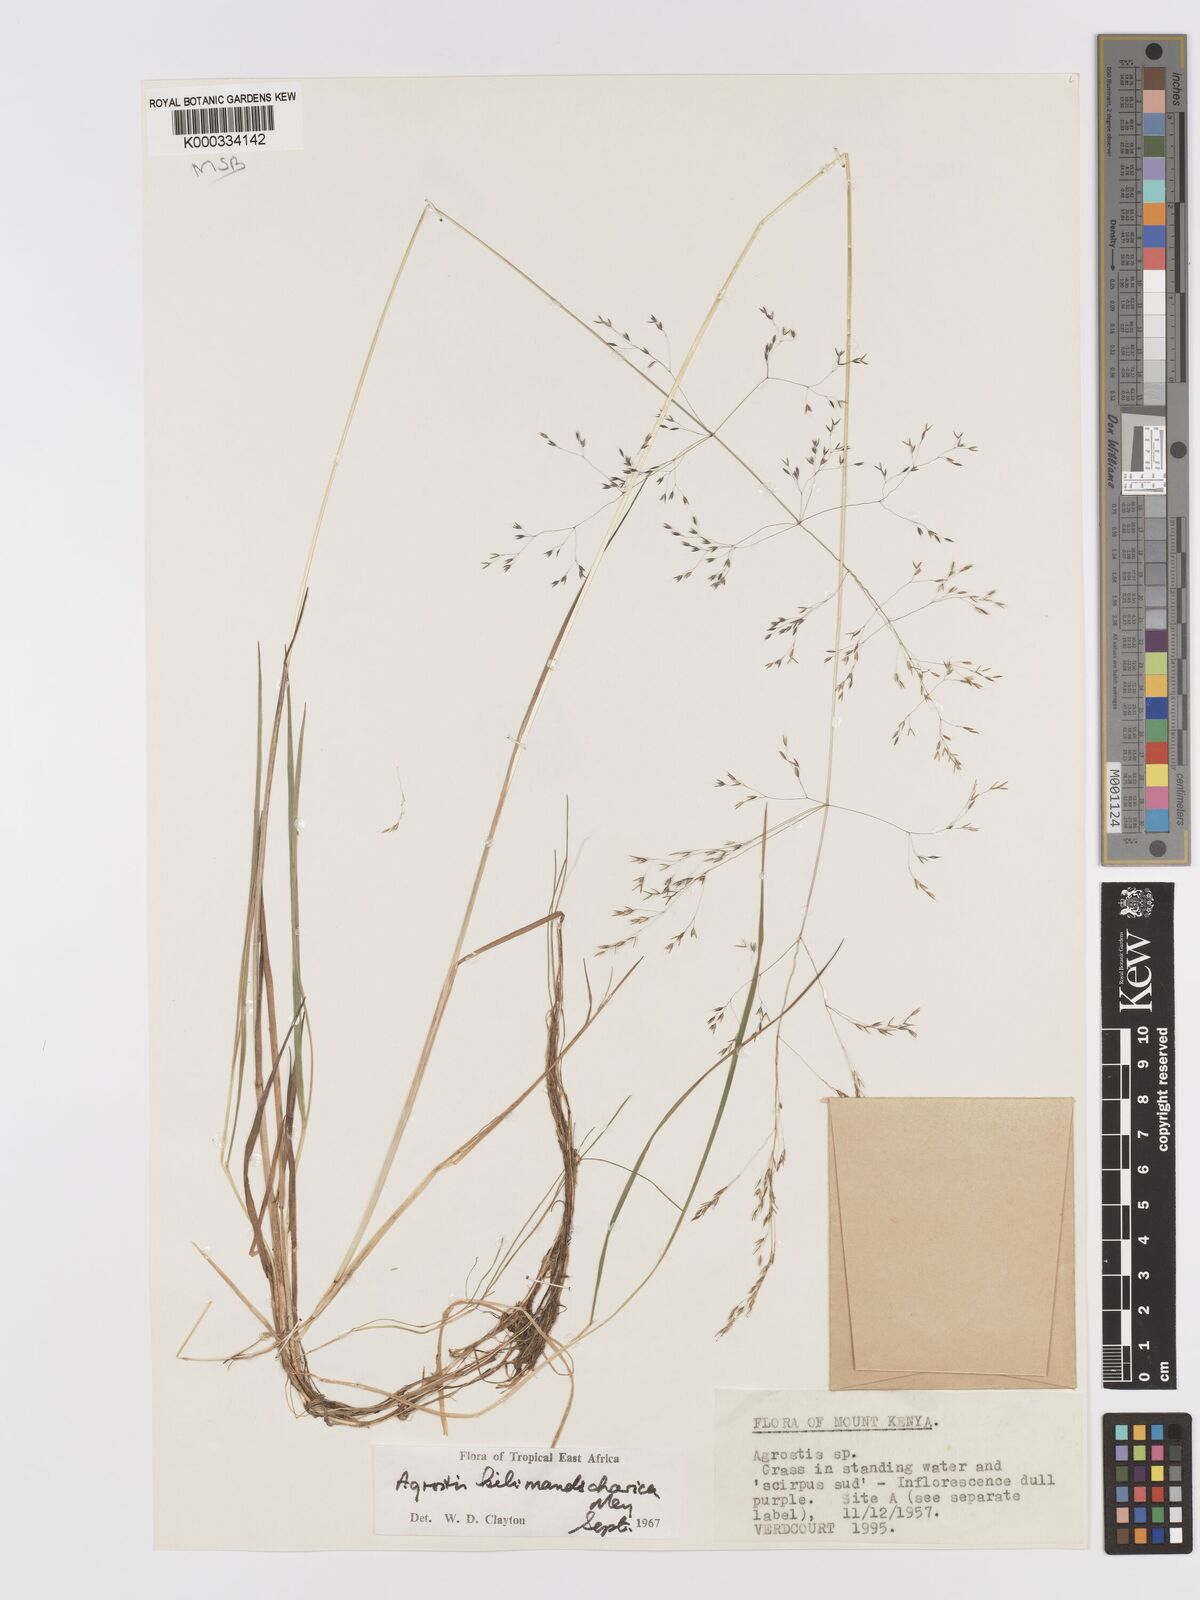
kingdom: Plantae
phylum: Tracheophyta
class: Liliopsida
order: Poales
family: Poaceae
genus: Agrostis
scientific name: Agrostis kilimandscharica
